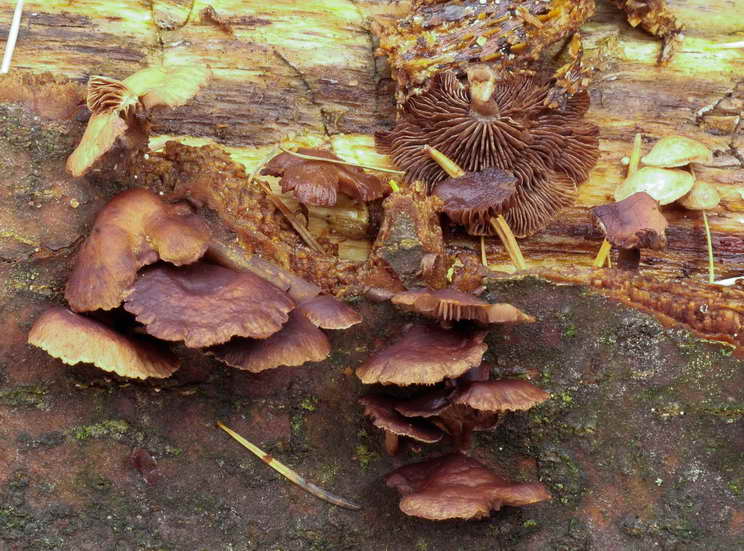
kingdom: Fungi
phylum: Basidiomycota
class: Agaricomycetes
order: Agaricales
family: Strophariaceae
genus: Deconica
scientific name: Deconica horizontalis
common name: ved-stråhat
